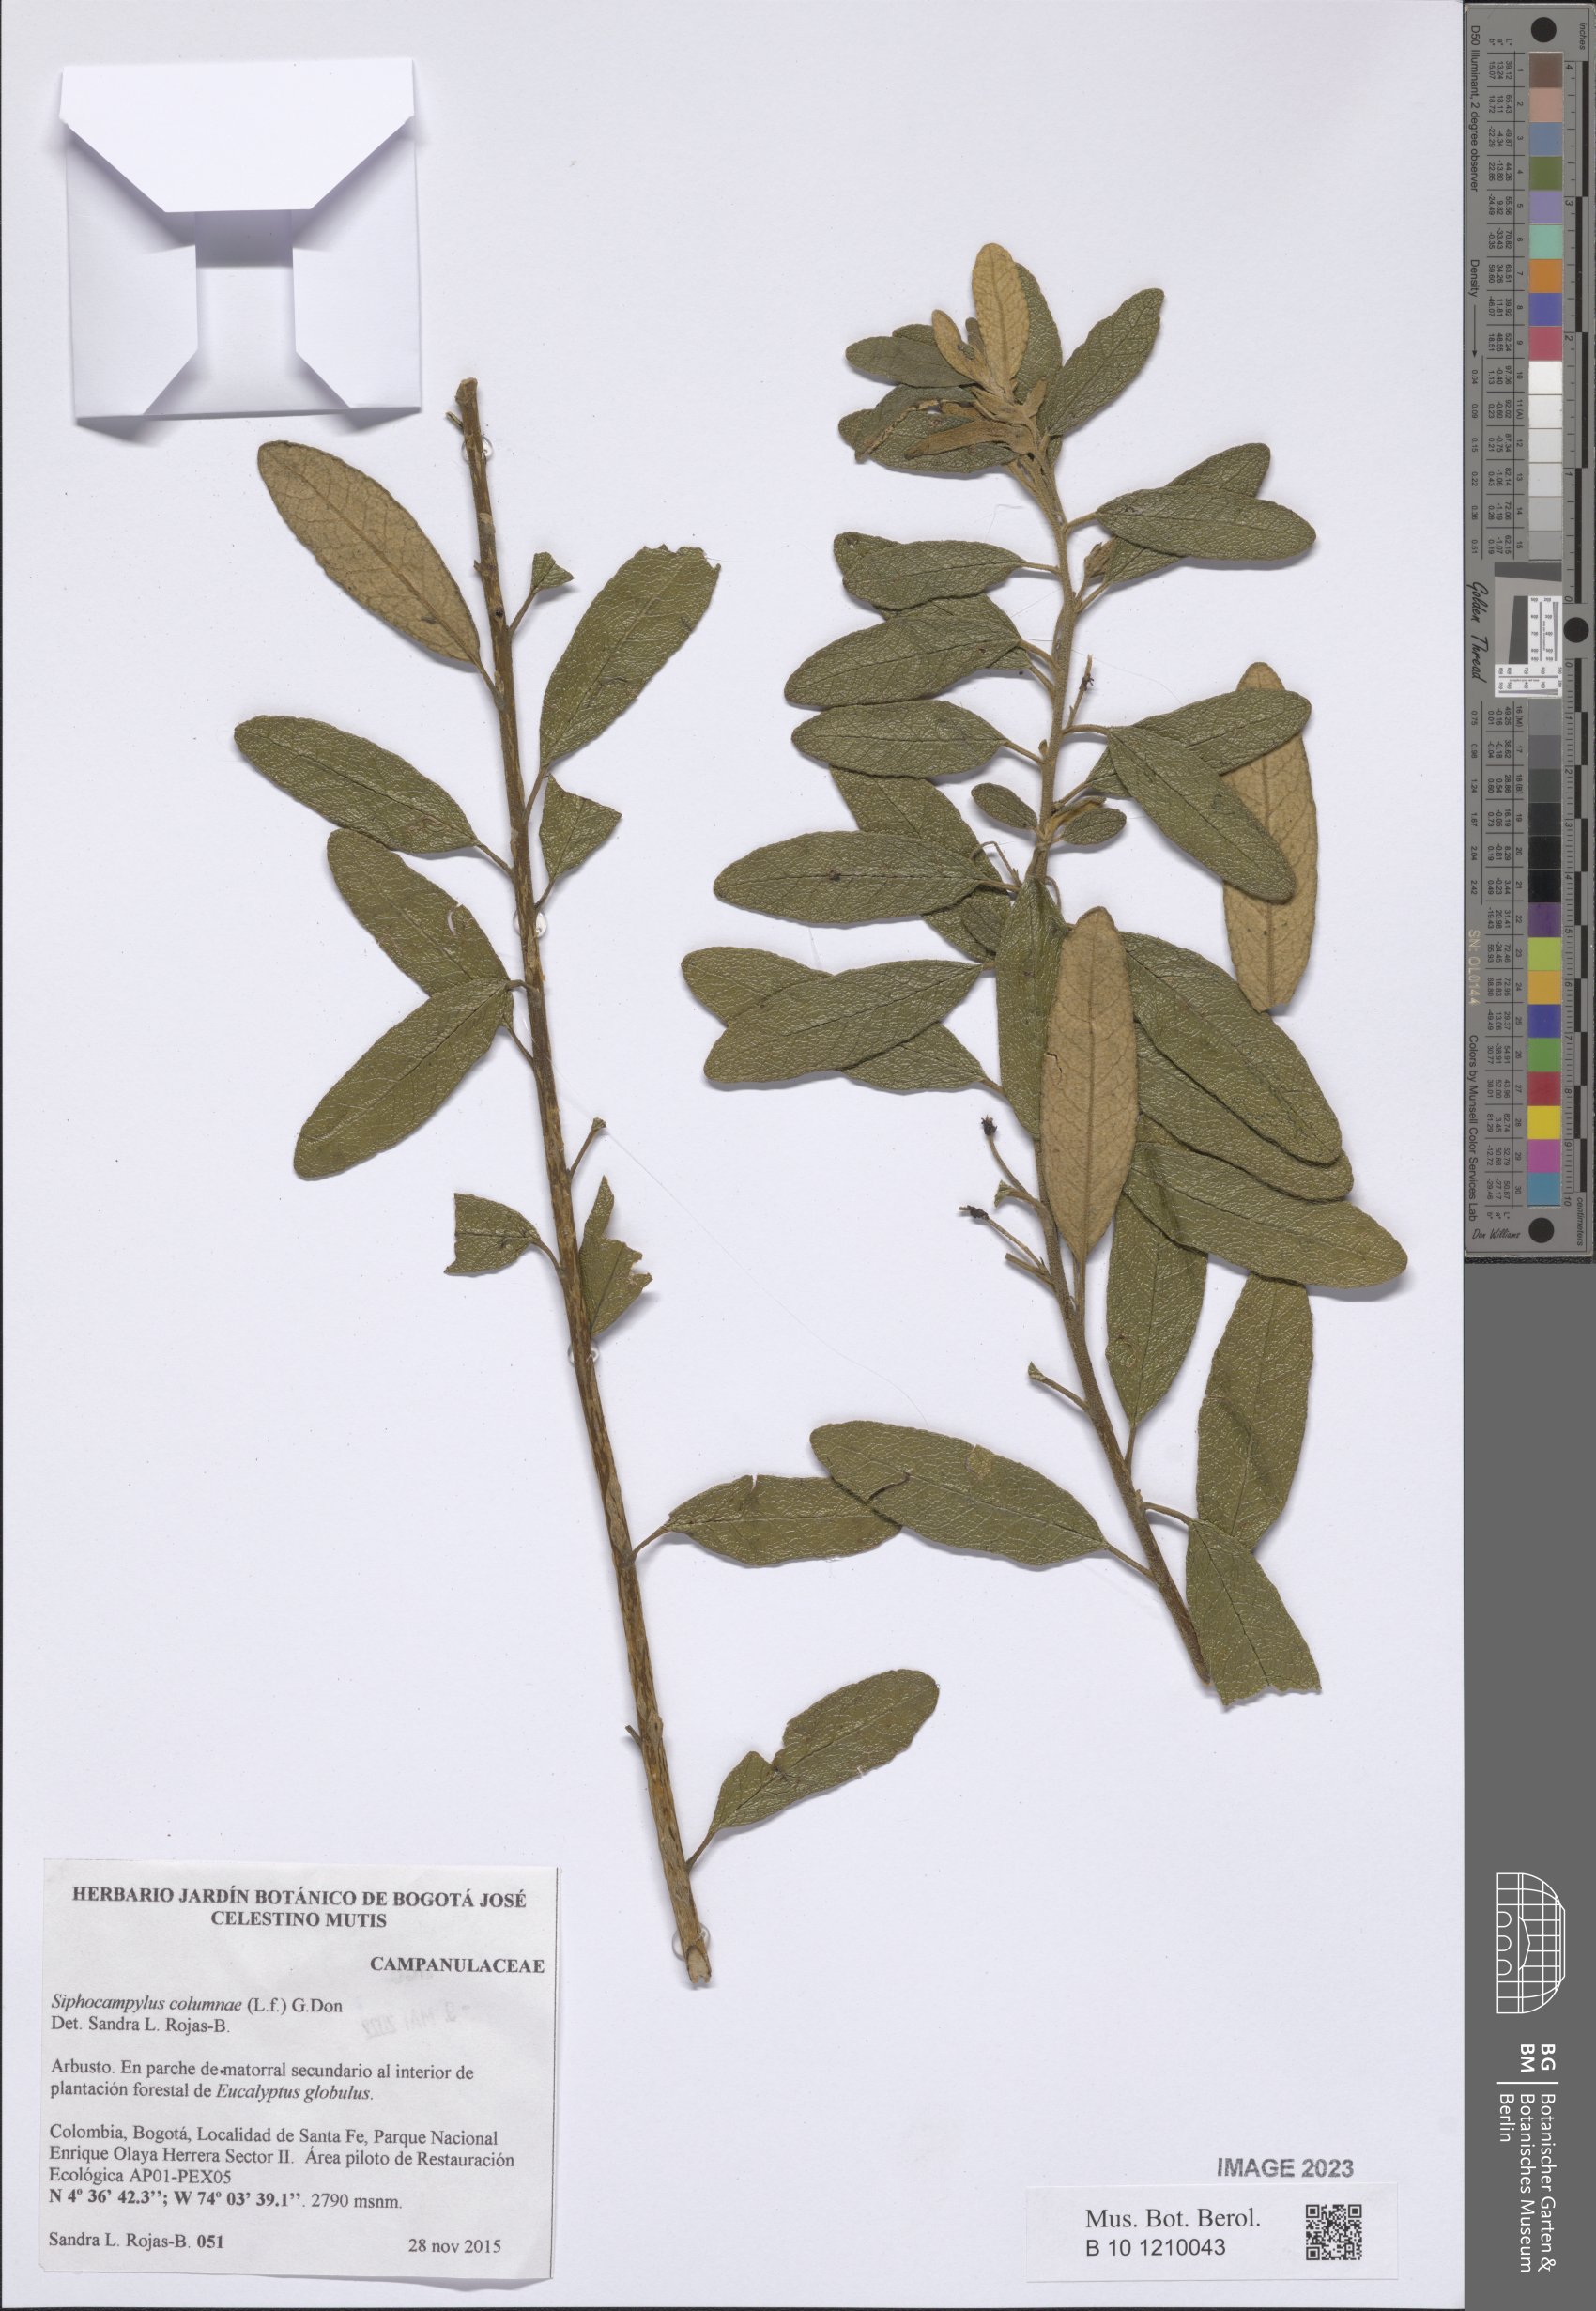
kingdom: Plantae
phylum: Tracheophyta
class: Magnoliopsida
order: Asterales
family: Campanulaceae
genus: Siphocampylus
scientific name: Siphocampylus columnae
